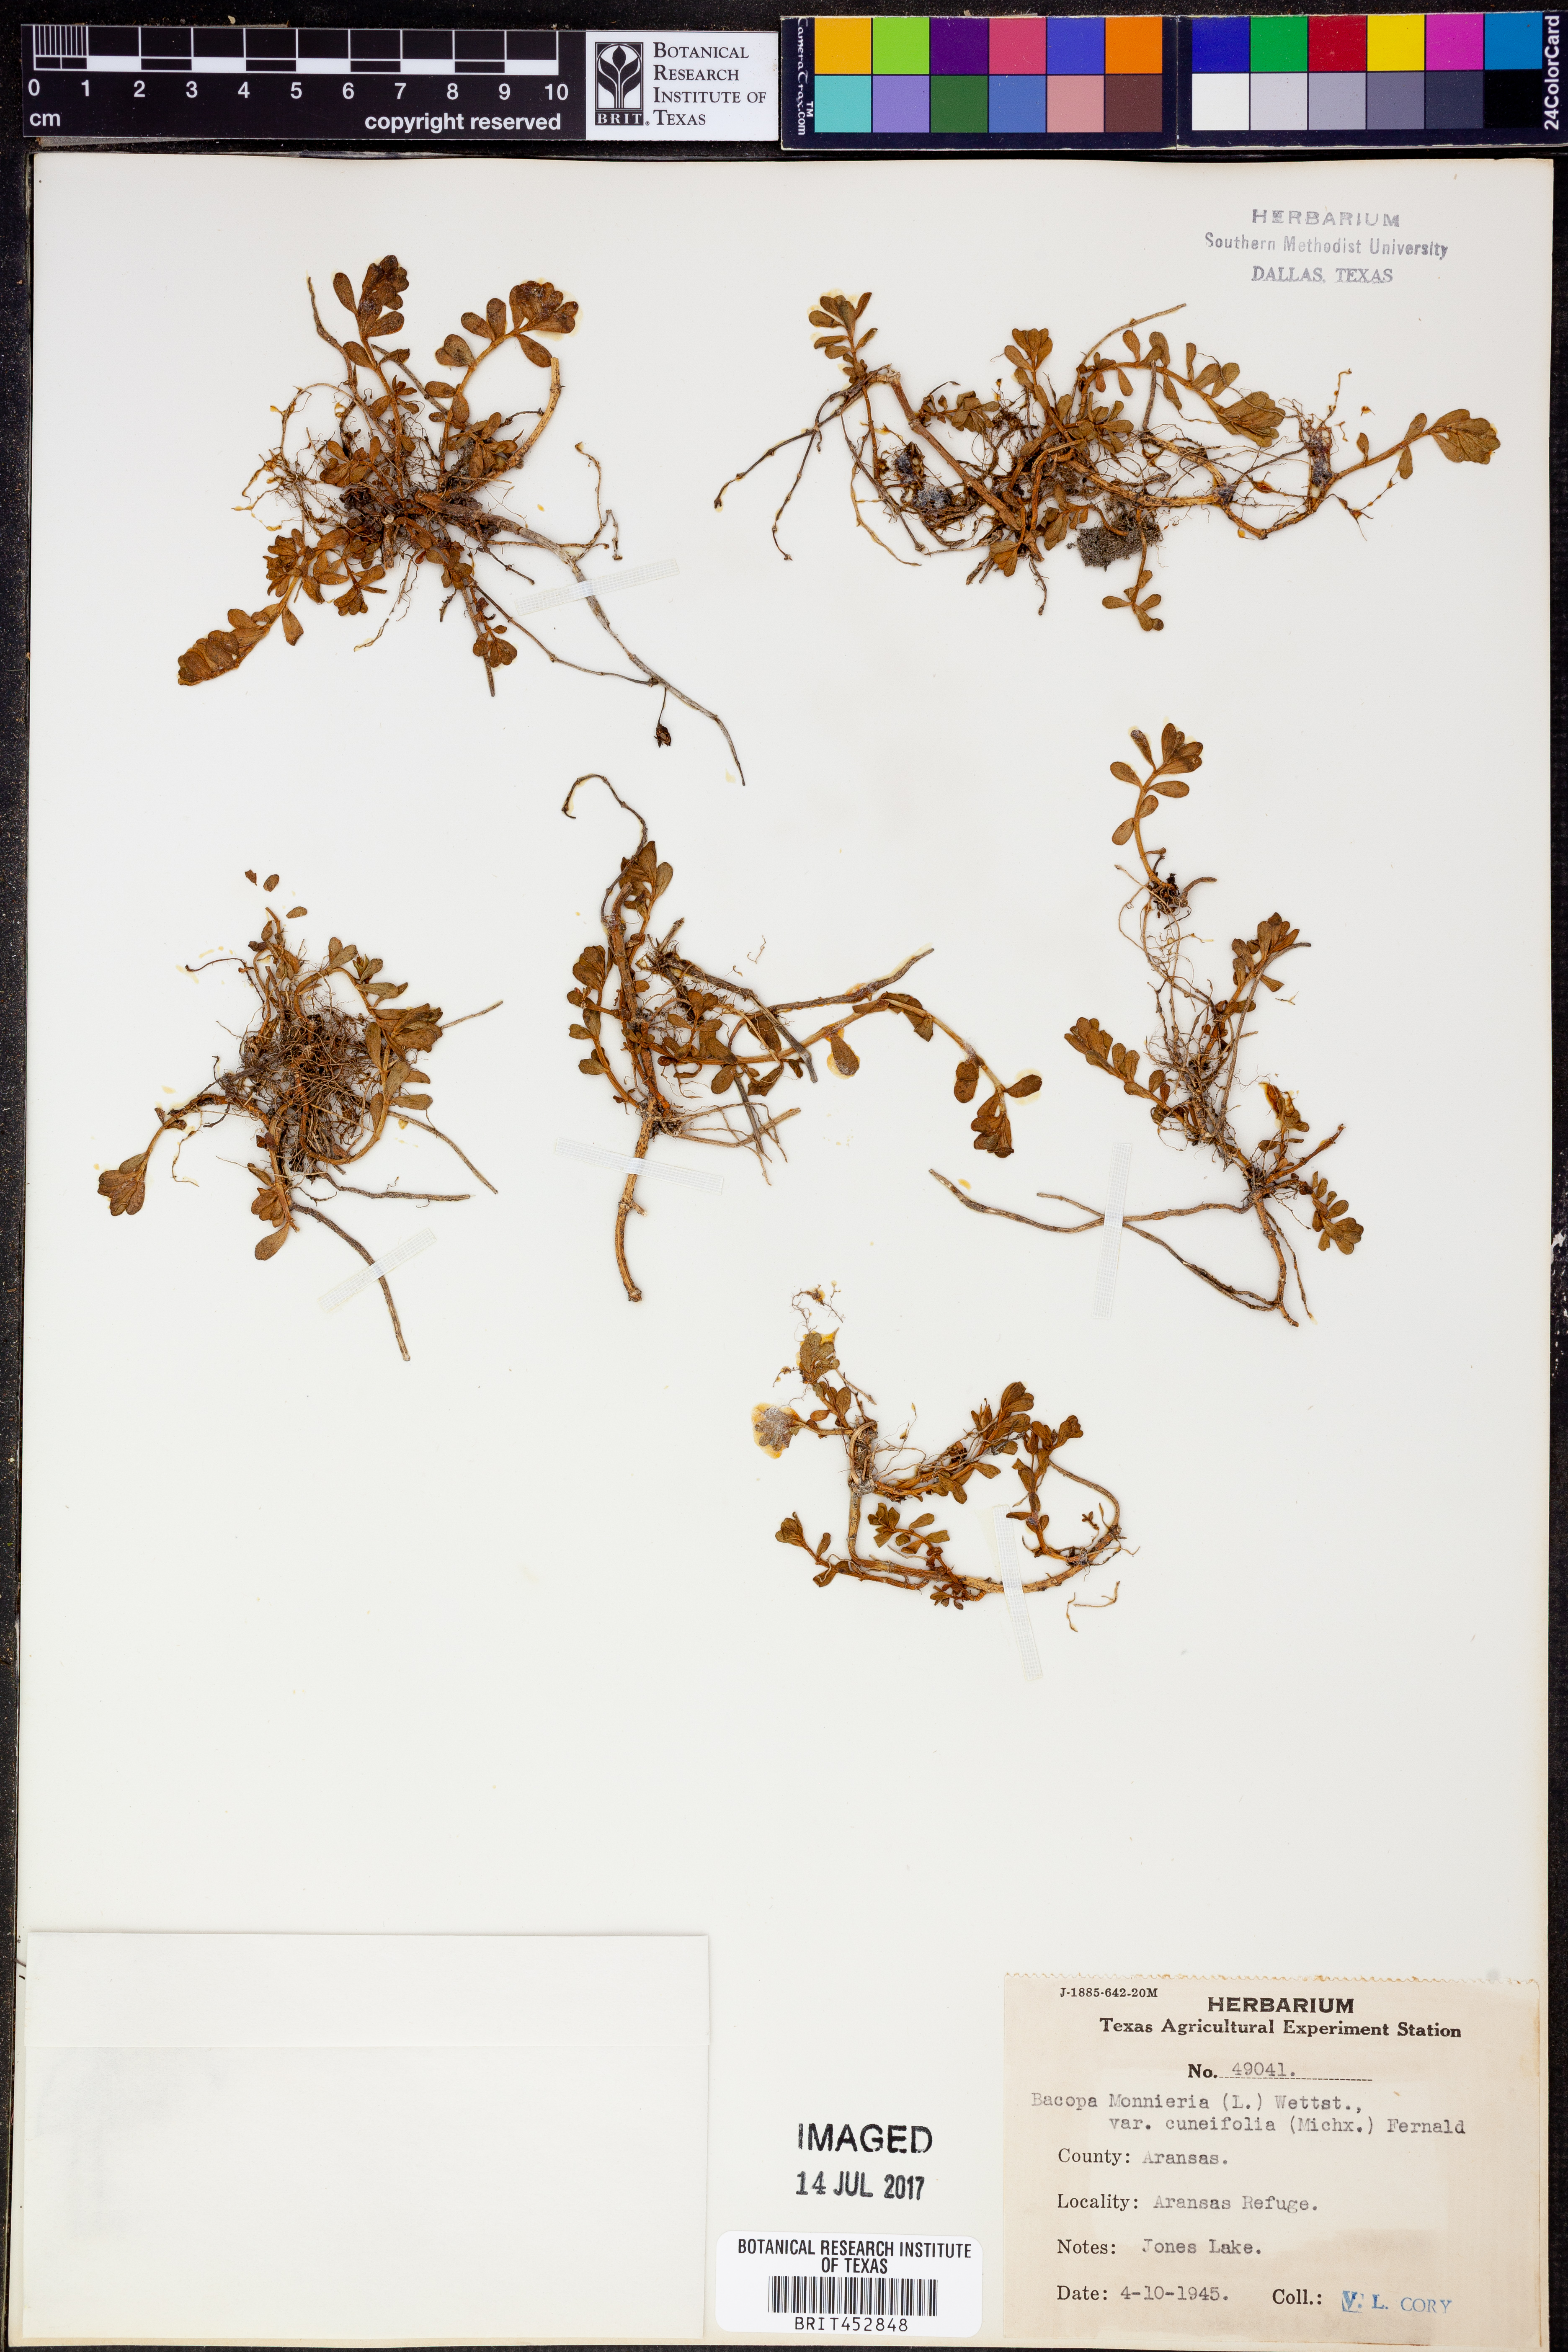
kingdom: Plantae
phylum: Tracheophyta
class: Magnoliopsida
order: Lamiales
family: Plantaginaceae
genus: Bacopa
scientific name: Bacopa monnieri
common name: Indian-pennywort
